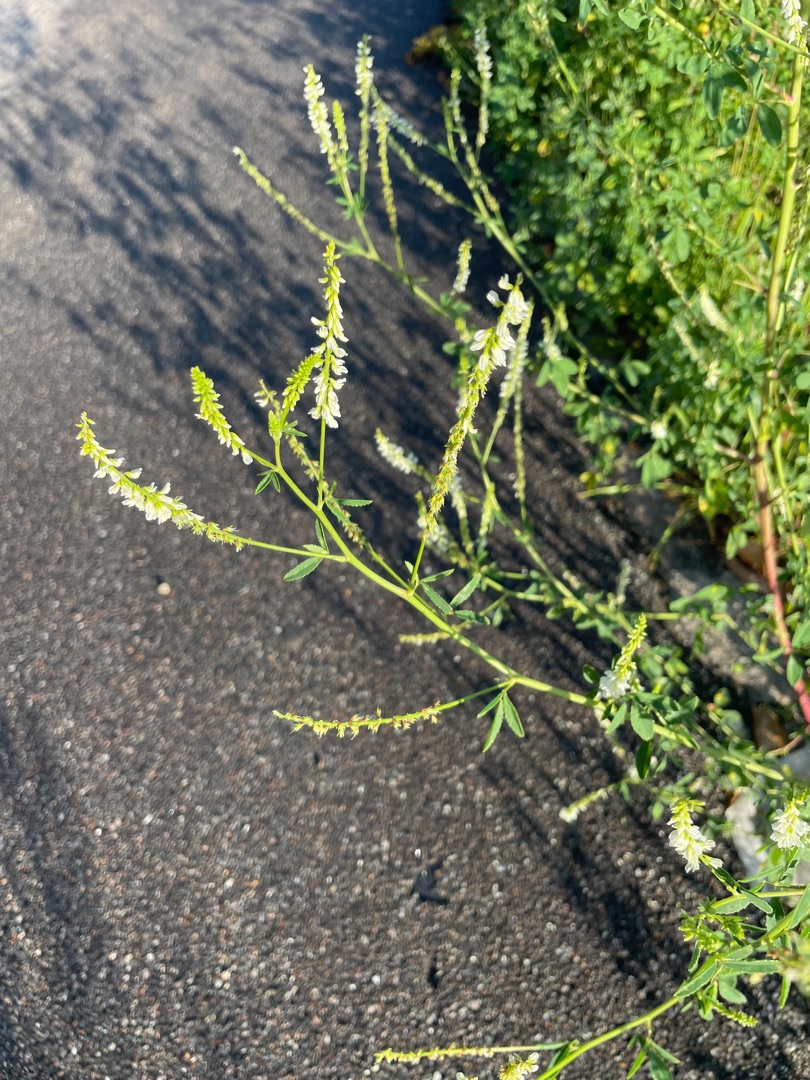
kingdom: Plantae
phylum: Tracheophyta
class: Magnoliopsida
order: Fabales
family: Fabaceae
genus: Melilotus
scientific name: Melilotus albus
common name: Hvid stenkløver
